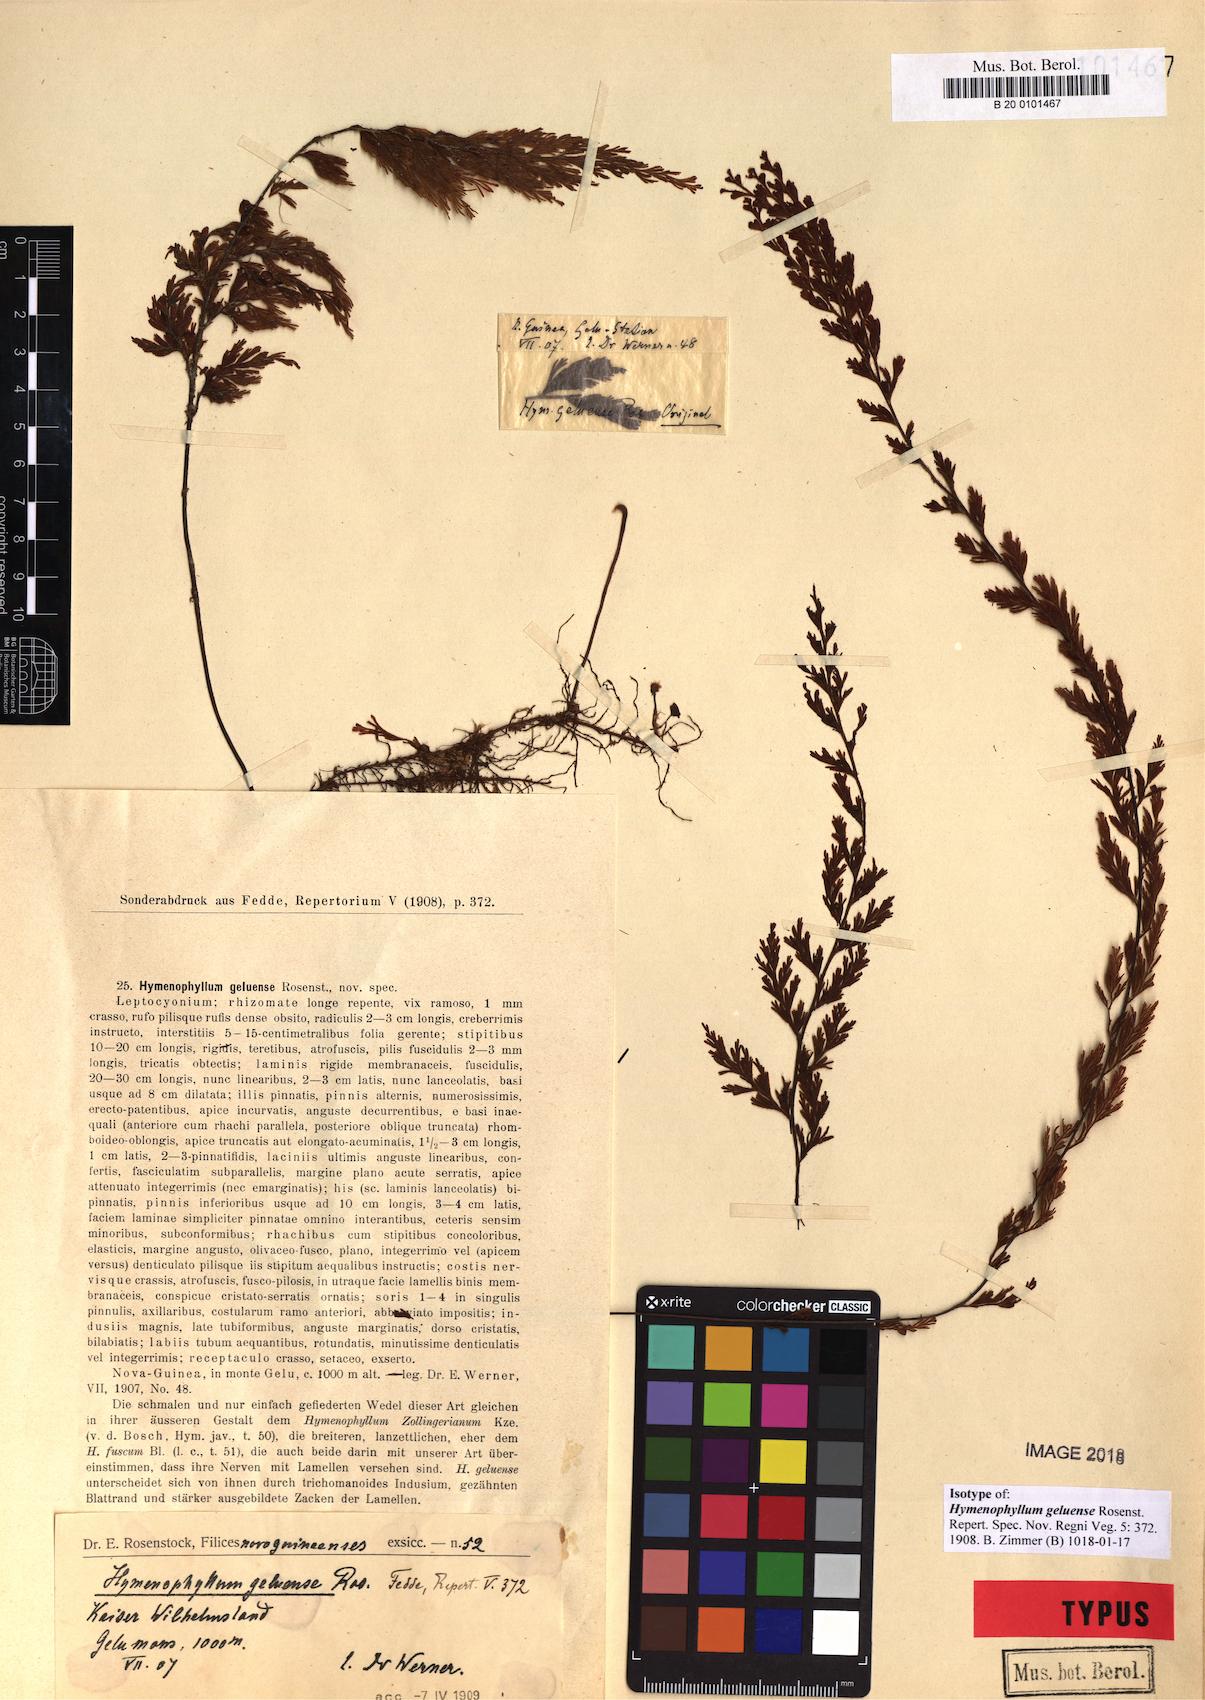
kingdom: Plantae
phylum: Tracheophyta
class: Polypodiopsida
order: Hymenophyllales
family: Hymenophyllaceae
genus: Hymenophyllum
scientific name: Hymenophyllum geluense
